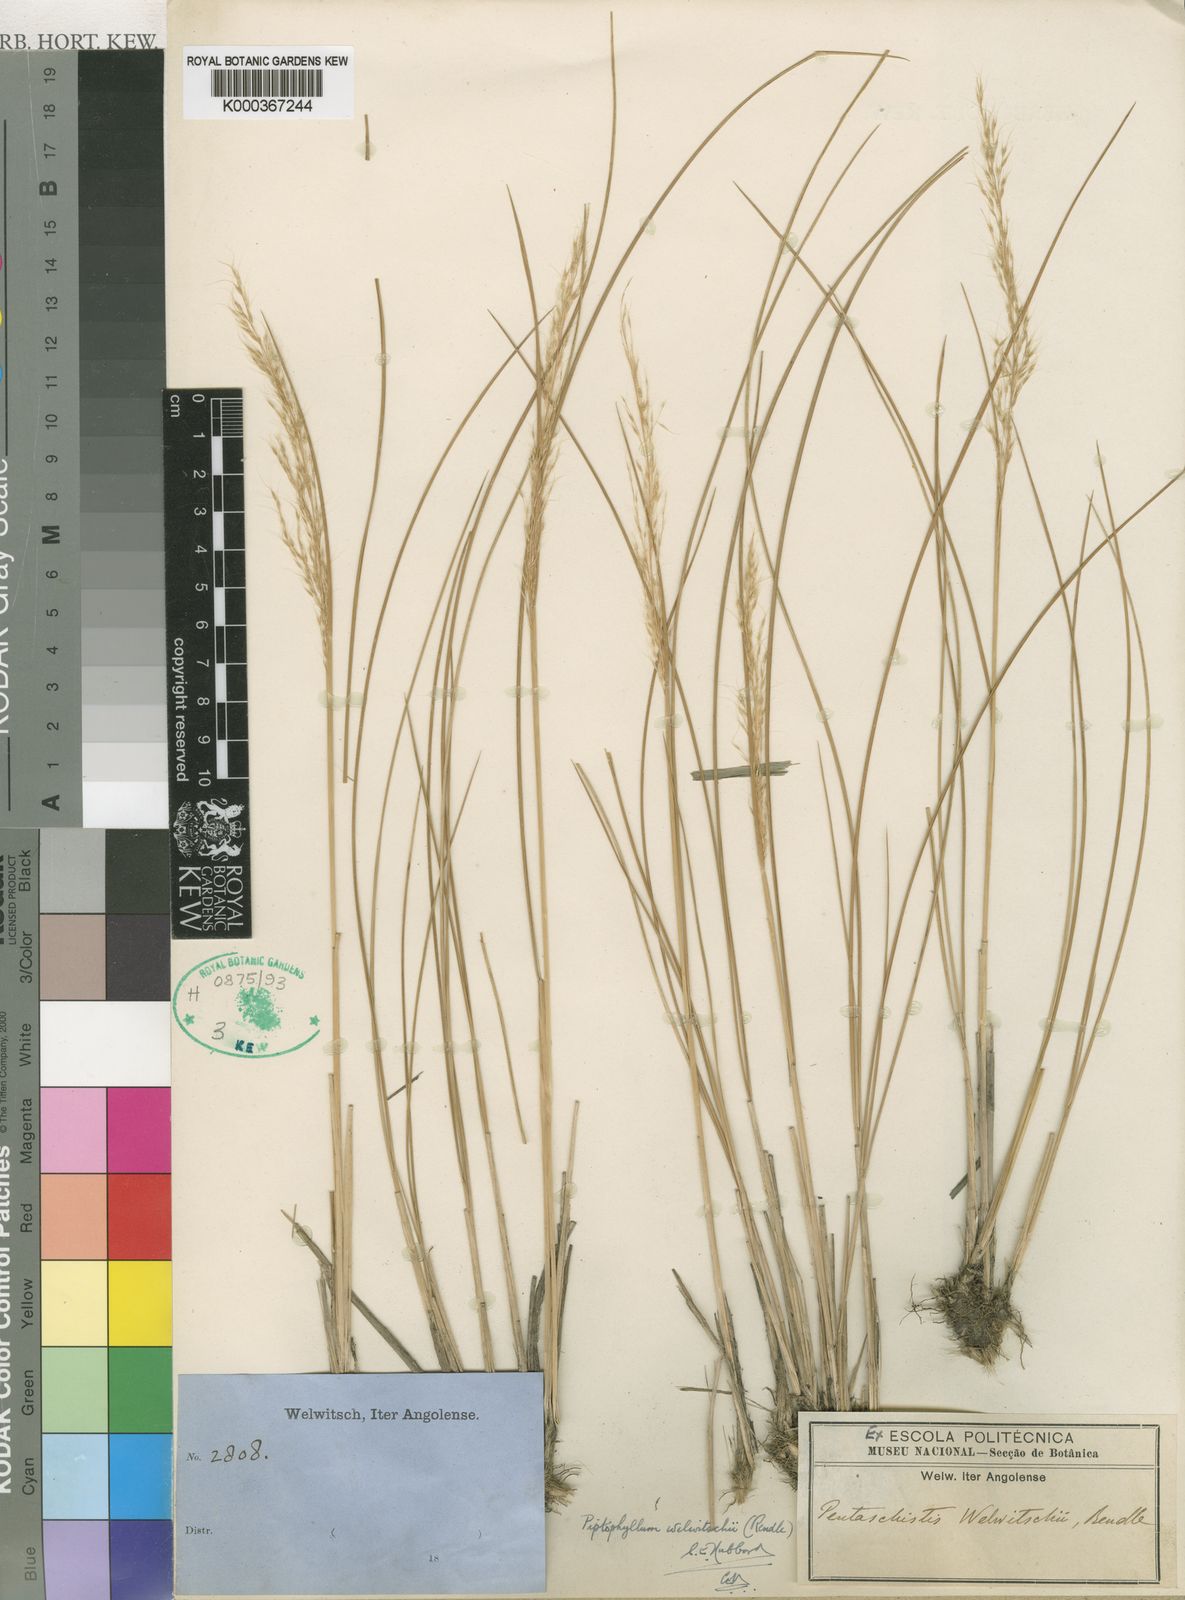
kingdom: Plantae
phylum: Tracheophyta
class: Liliopsida
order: Poales
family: Poaceae
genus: Piptophyllum
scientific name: Piptophyllum welwitschii
